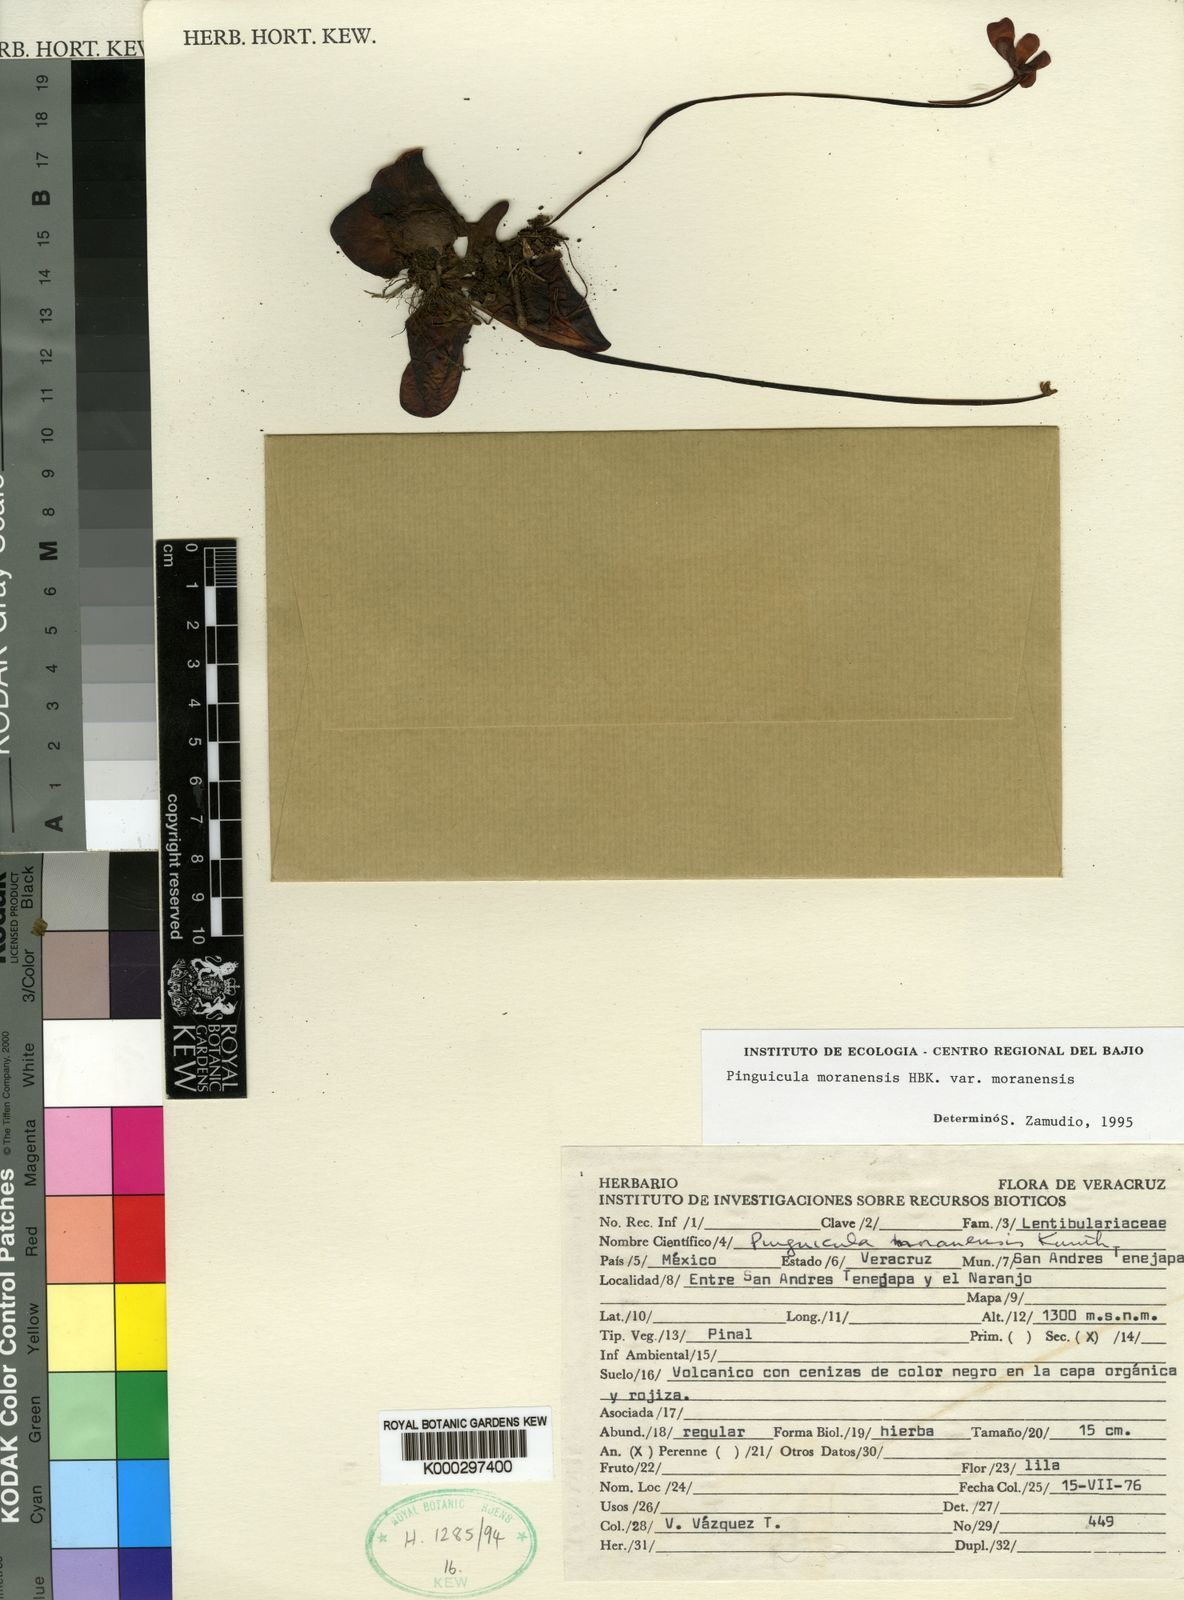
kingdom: Plantae
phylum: Tracheophyta
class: Magnoliopsida
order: Lamiales
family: Lentibulariaceae
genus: Pinguicula
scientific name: Pinguicula moranensis
